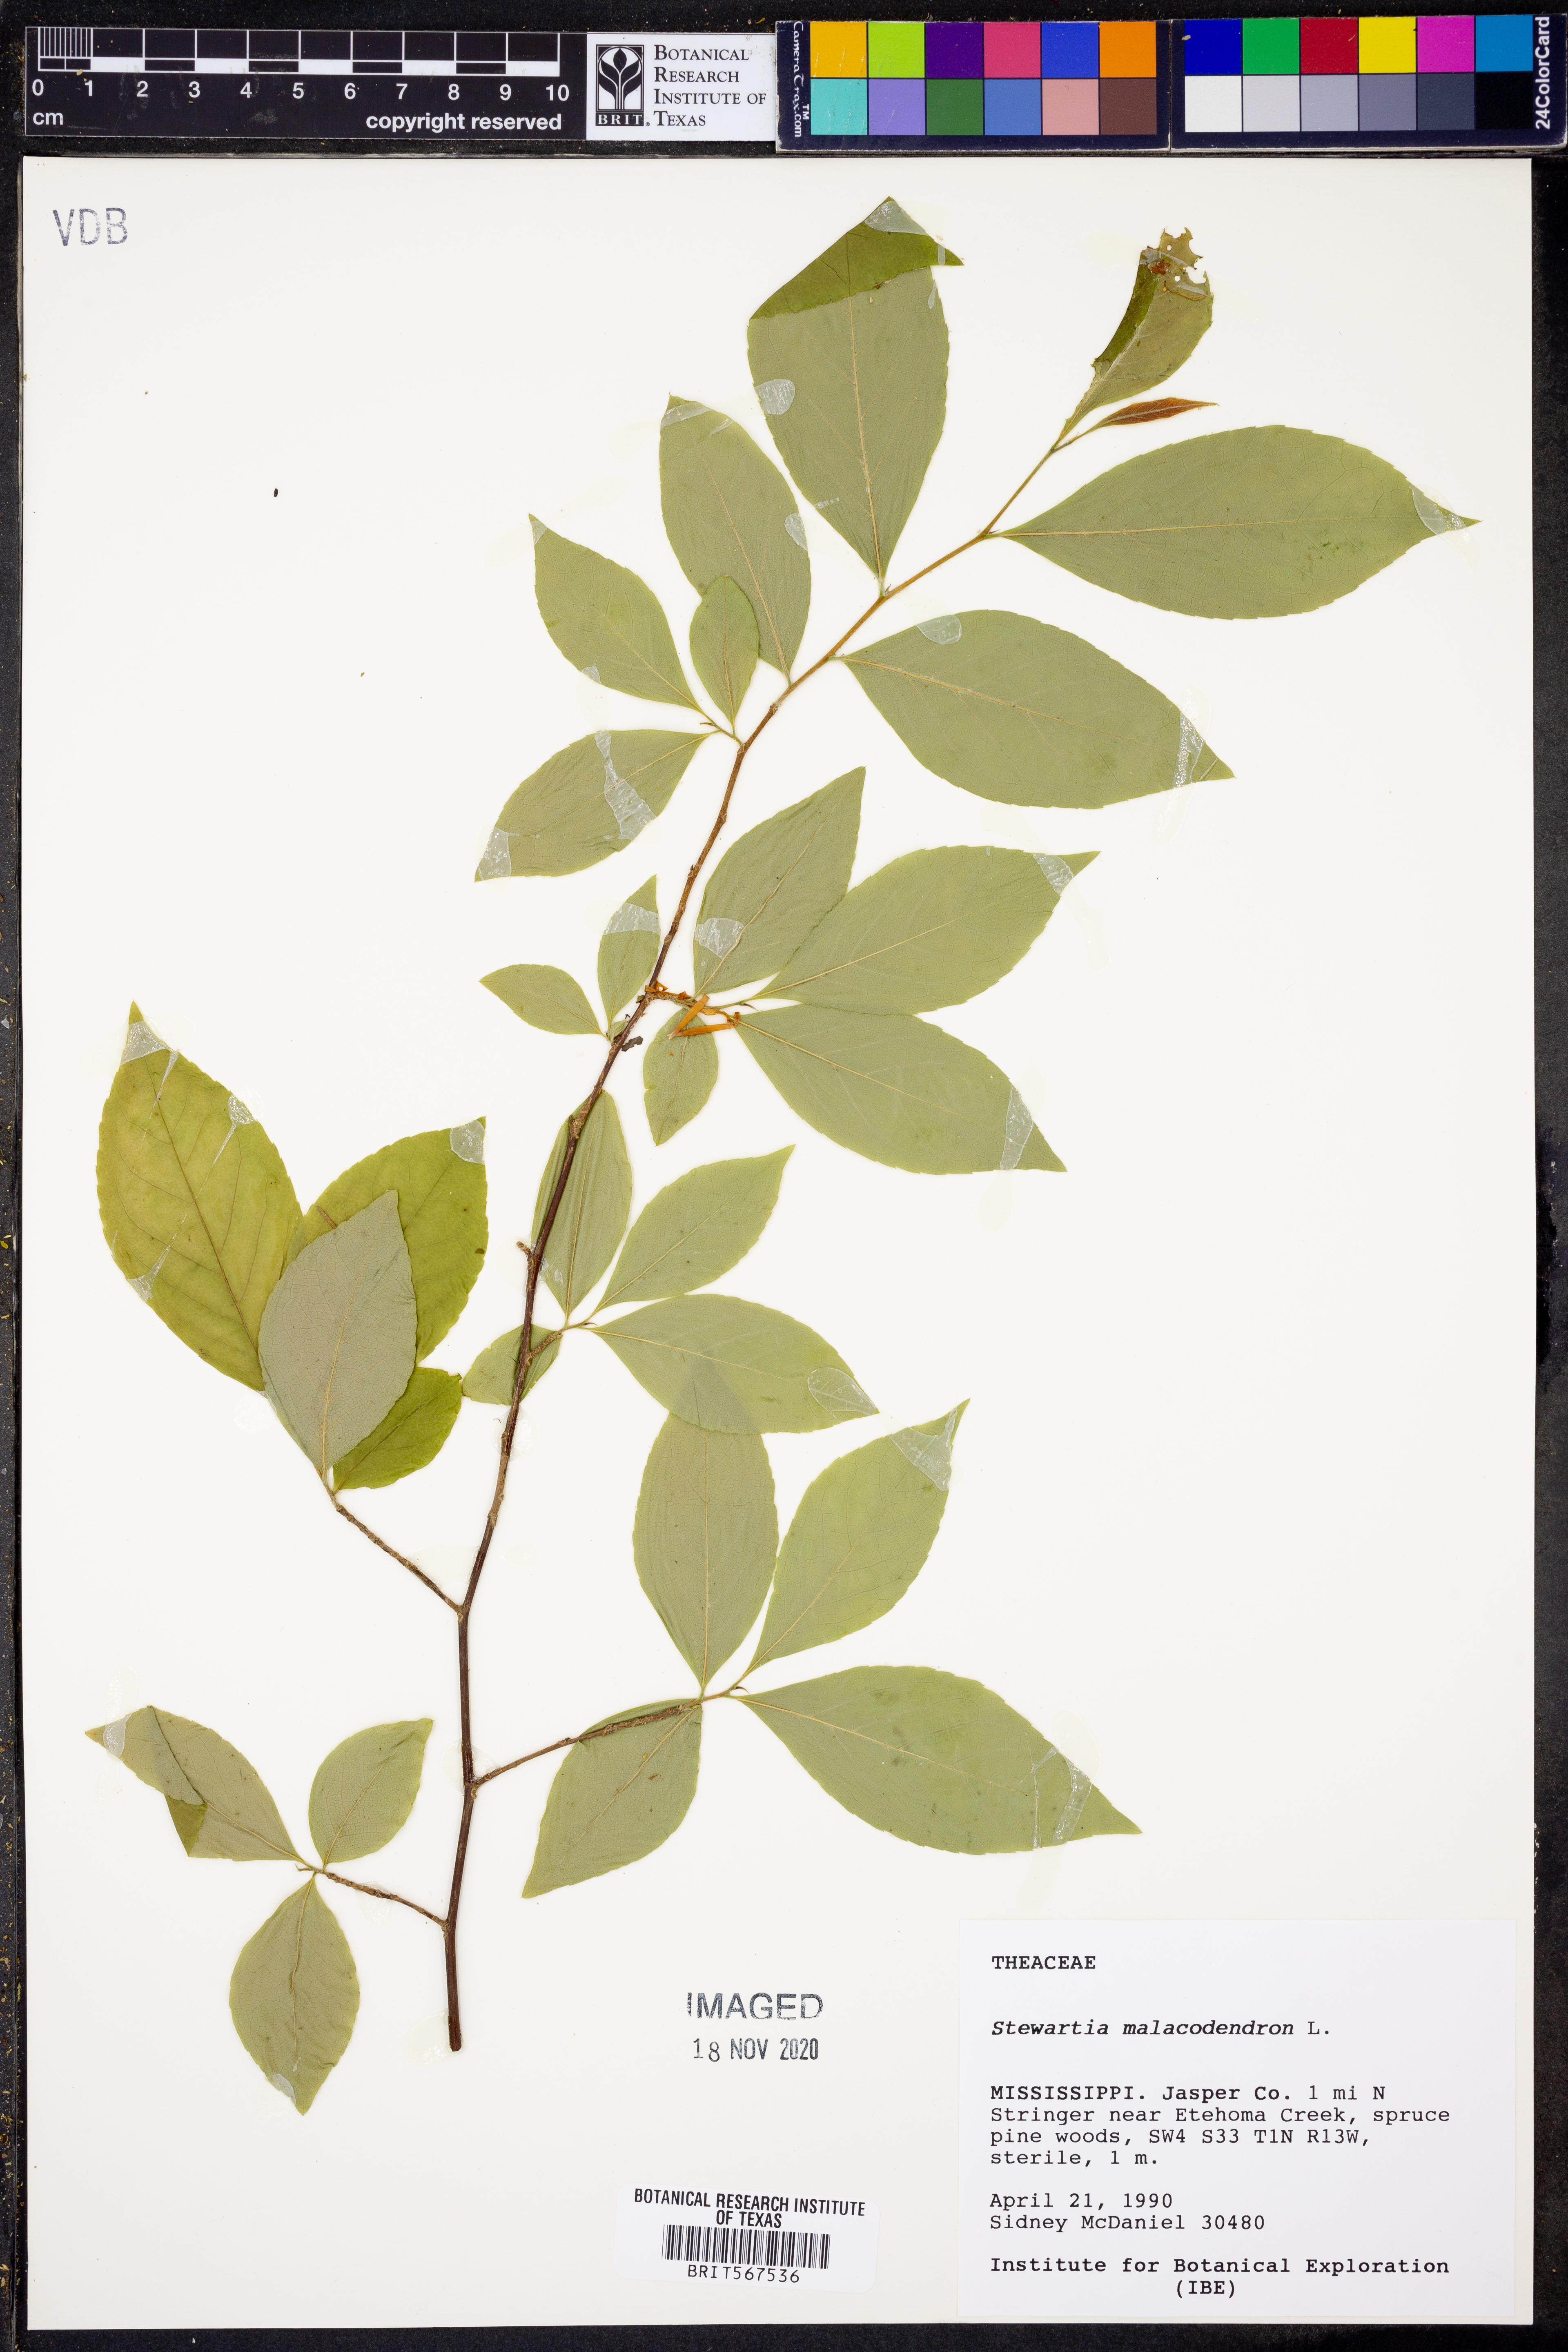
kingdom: Plantae
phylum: Tracheophyta
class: Magnoliopsida
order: Ericales
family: Theaceae
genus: Stewartia
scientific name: Stewartia malacodendron
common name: Virginia stewartia
